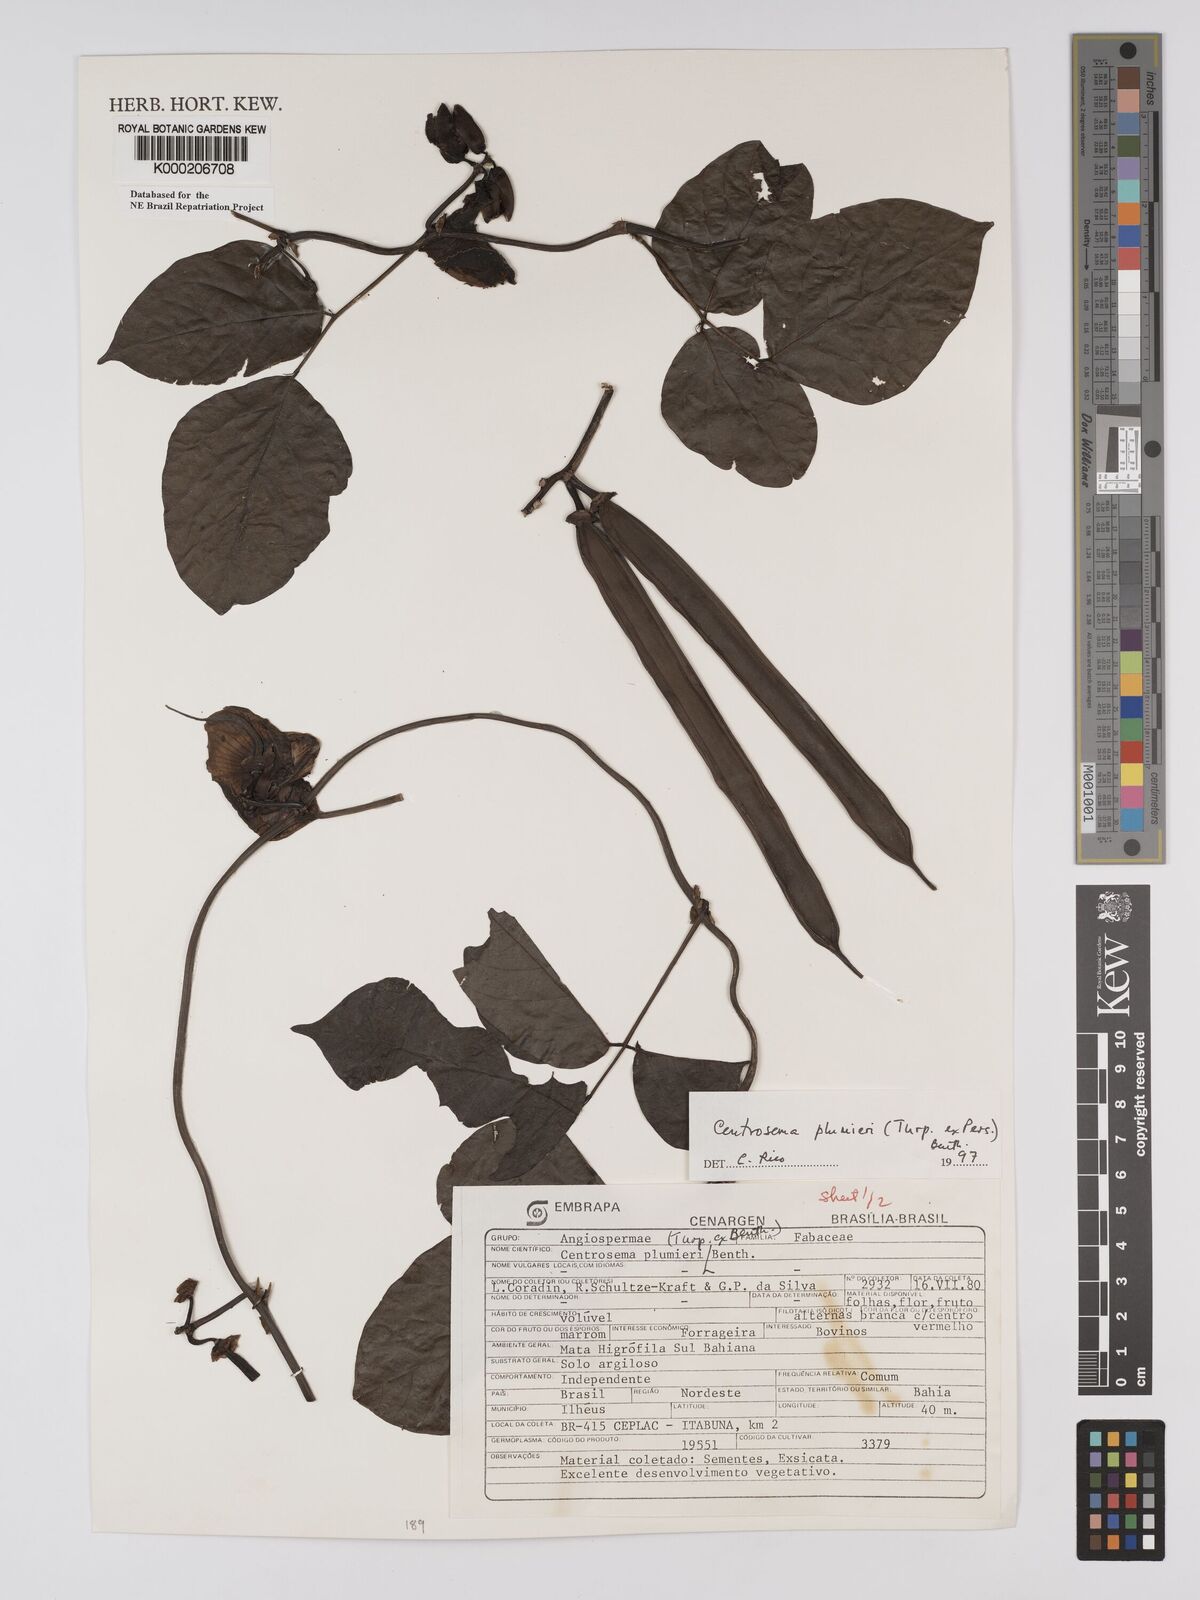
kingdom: Plantae
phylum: Tracheophyta
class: Magnoliopsida
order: Fabales
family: Fabaceae
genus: Centrosema
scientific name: Centrosema plumieri
